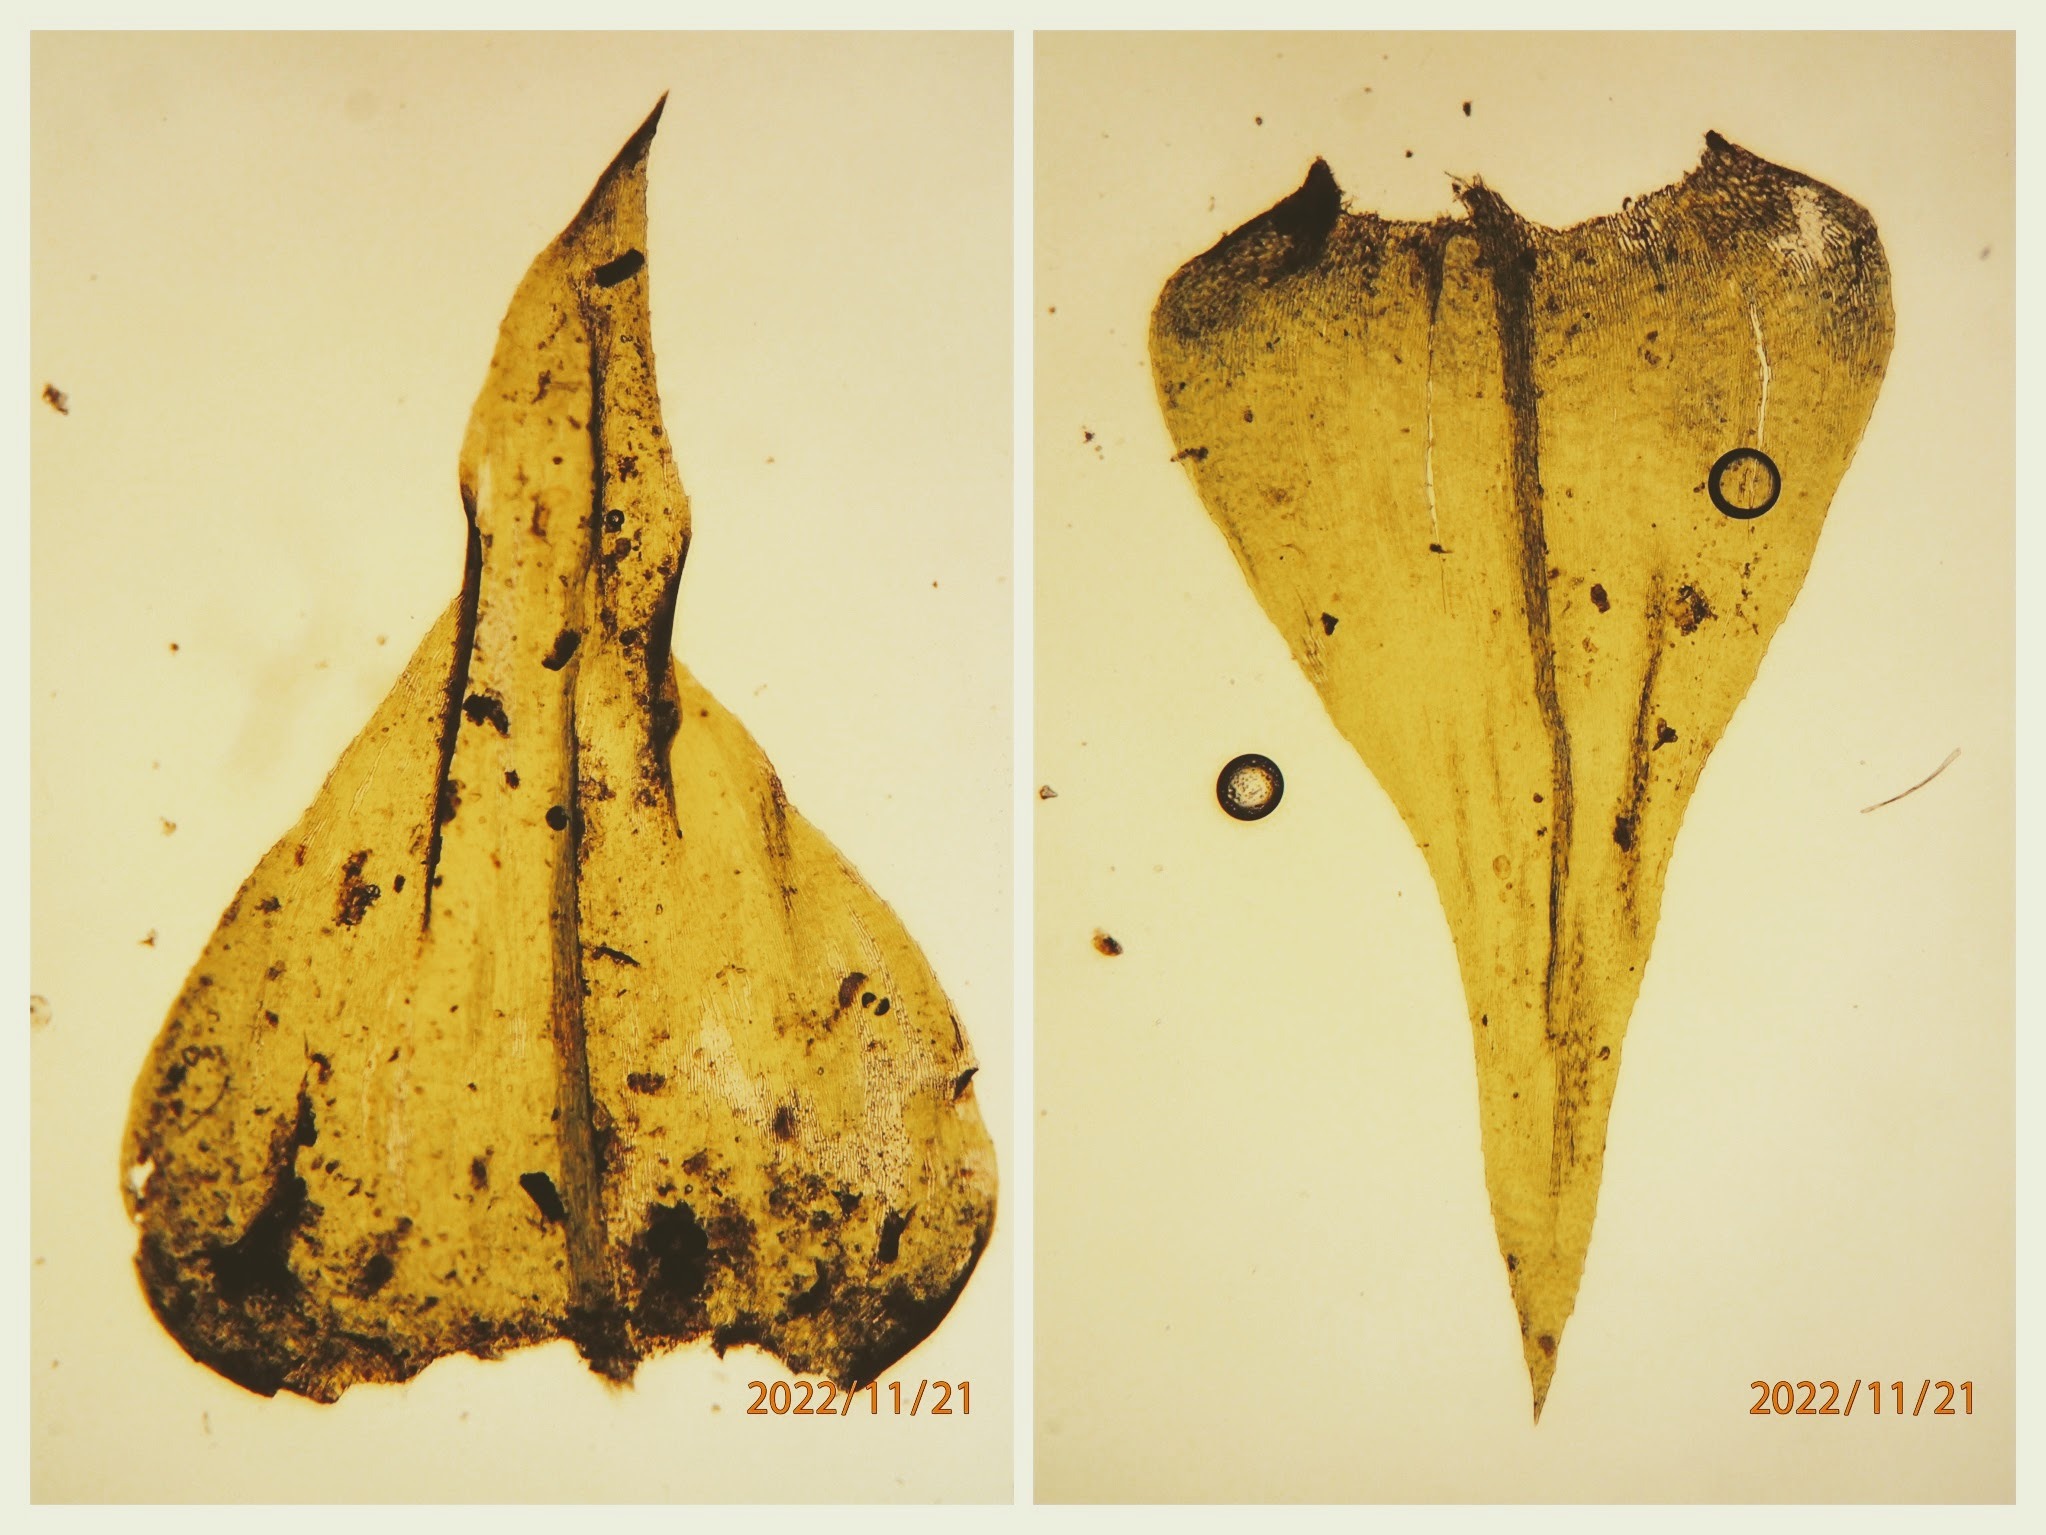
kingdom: Plantae
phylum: Bryophyta
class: Bryopsida
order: Hypnales
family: Brachytheciaceae
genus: Eurhynchium
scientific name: Eurhynchium striatum
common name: Stribet næbmos
